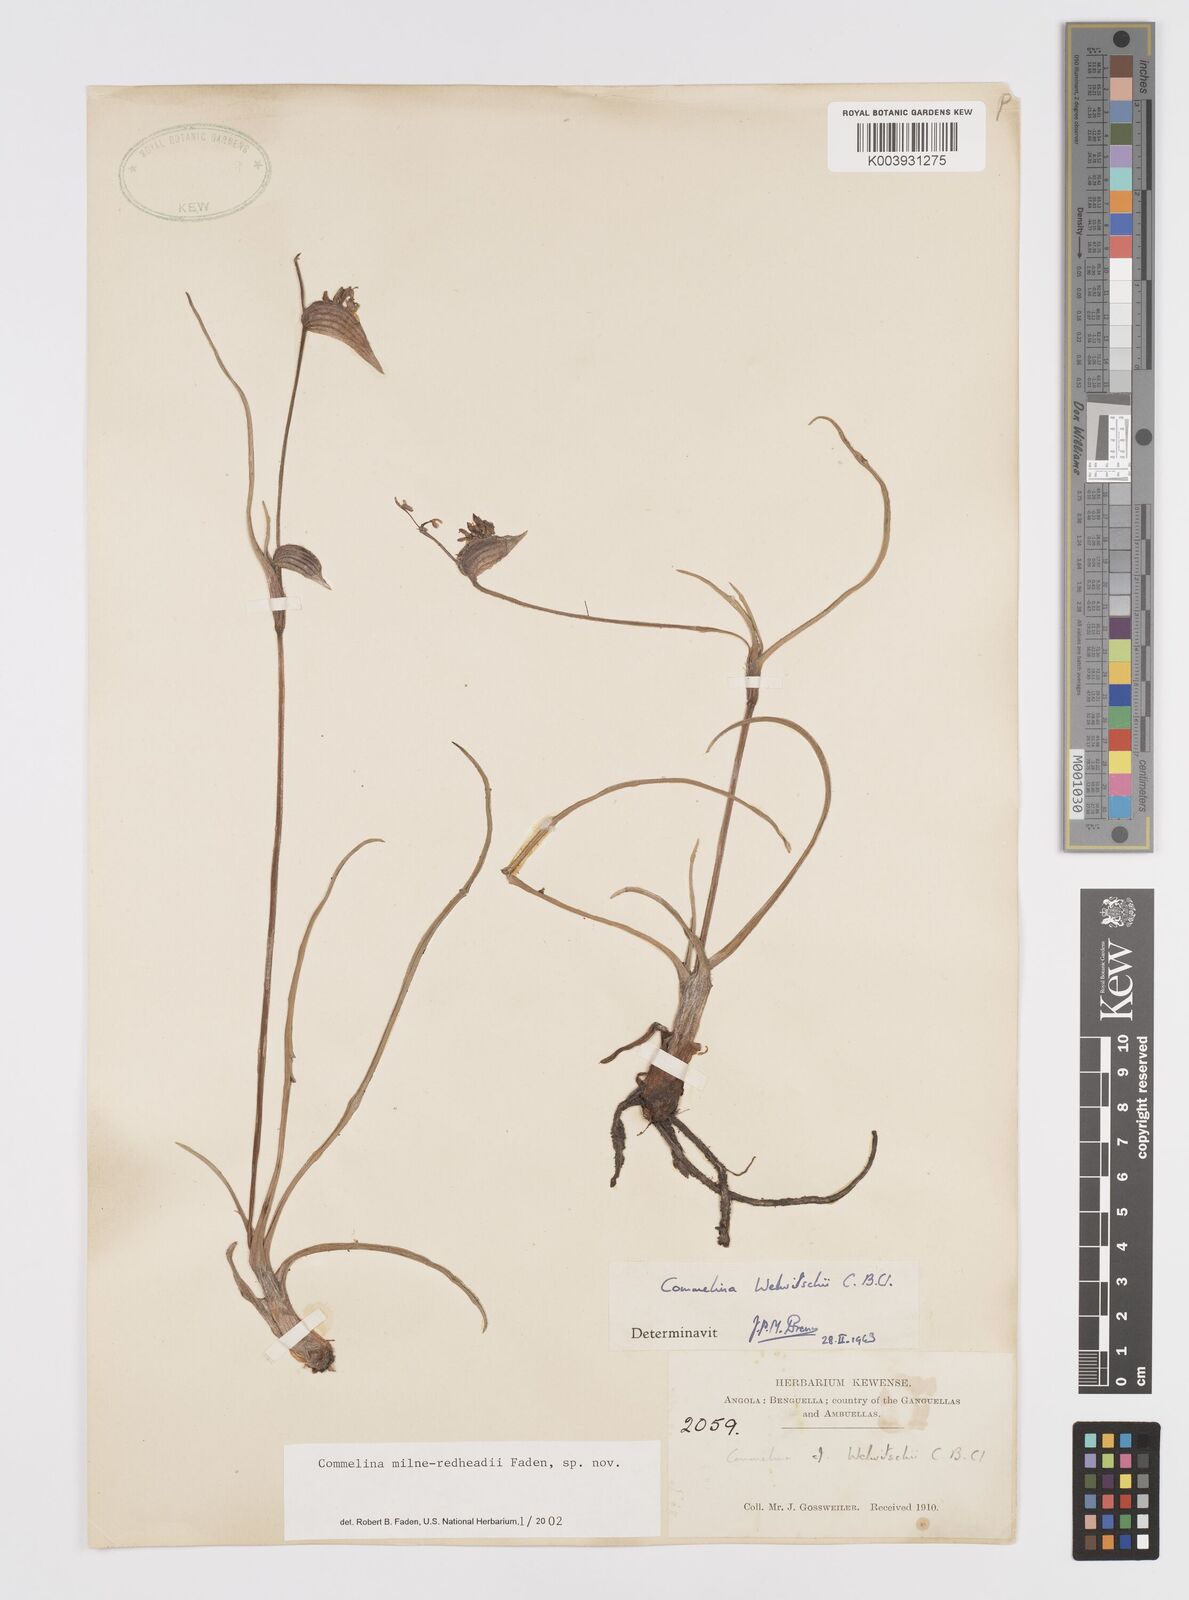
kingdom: Plantae
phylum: Tracheophyta
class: Liliopsida
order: Commelinales
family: Commelinaceae
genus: Commelina
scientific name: Commelina milne-redheadii
